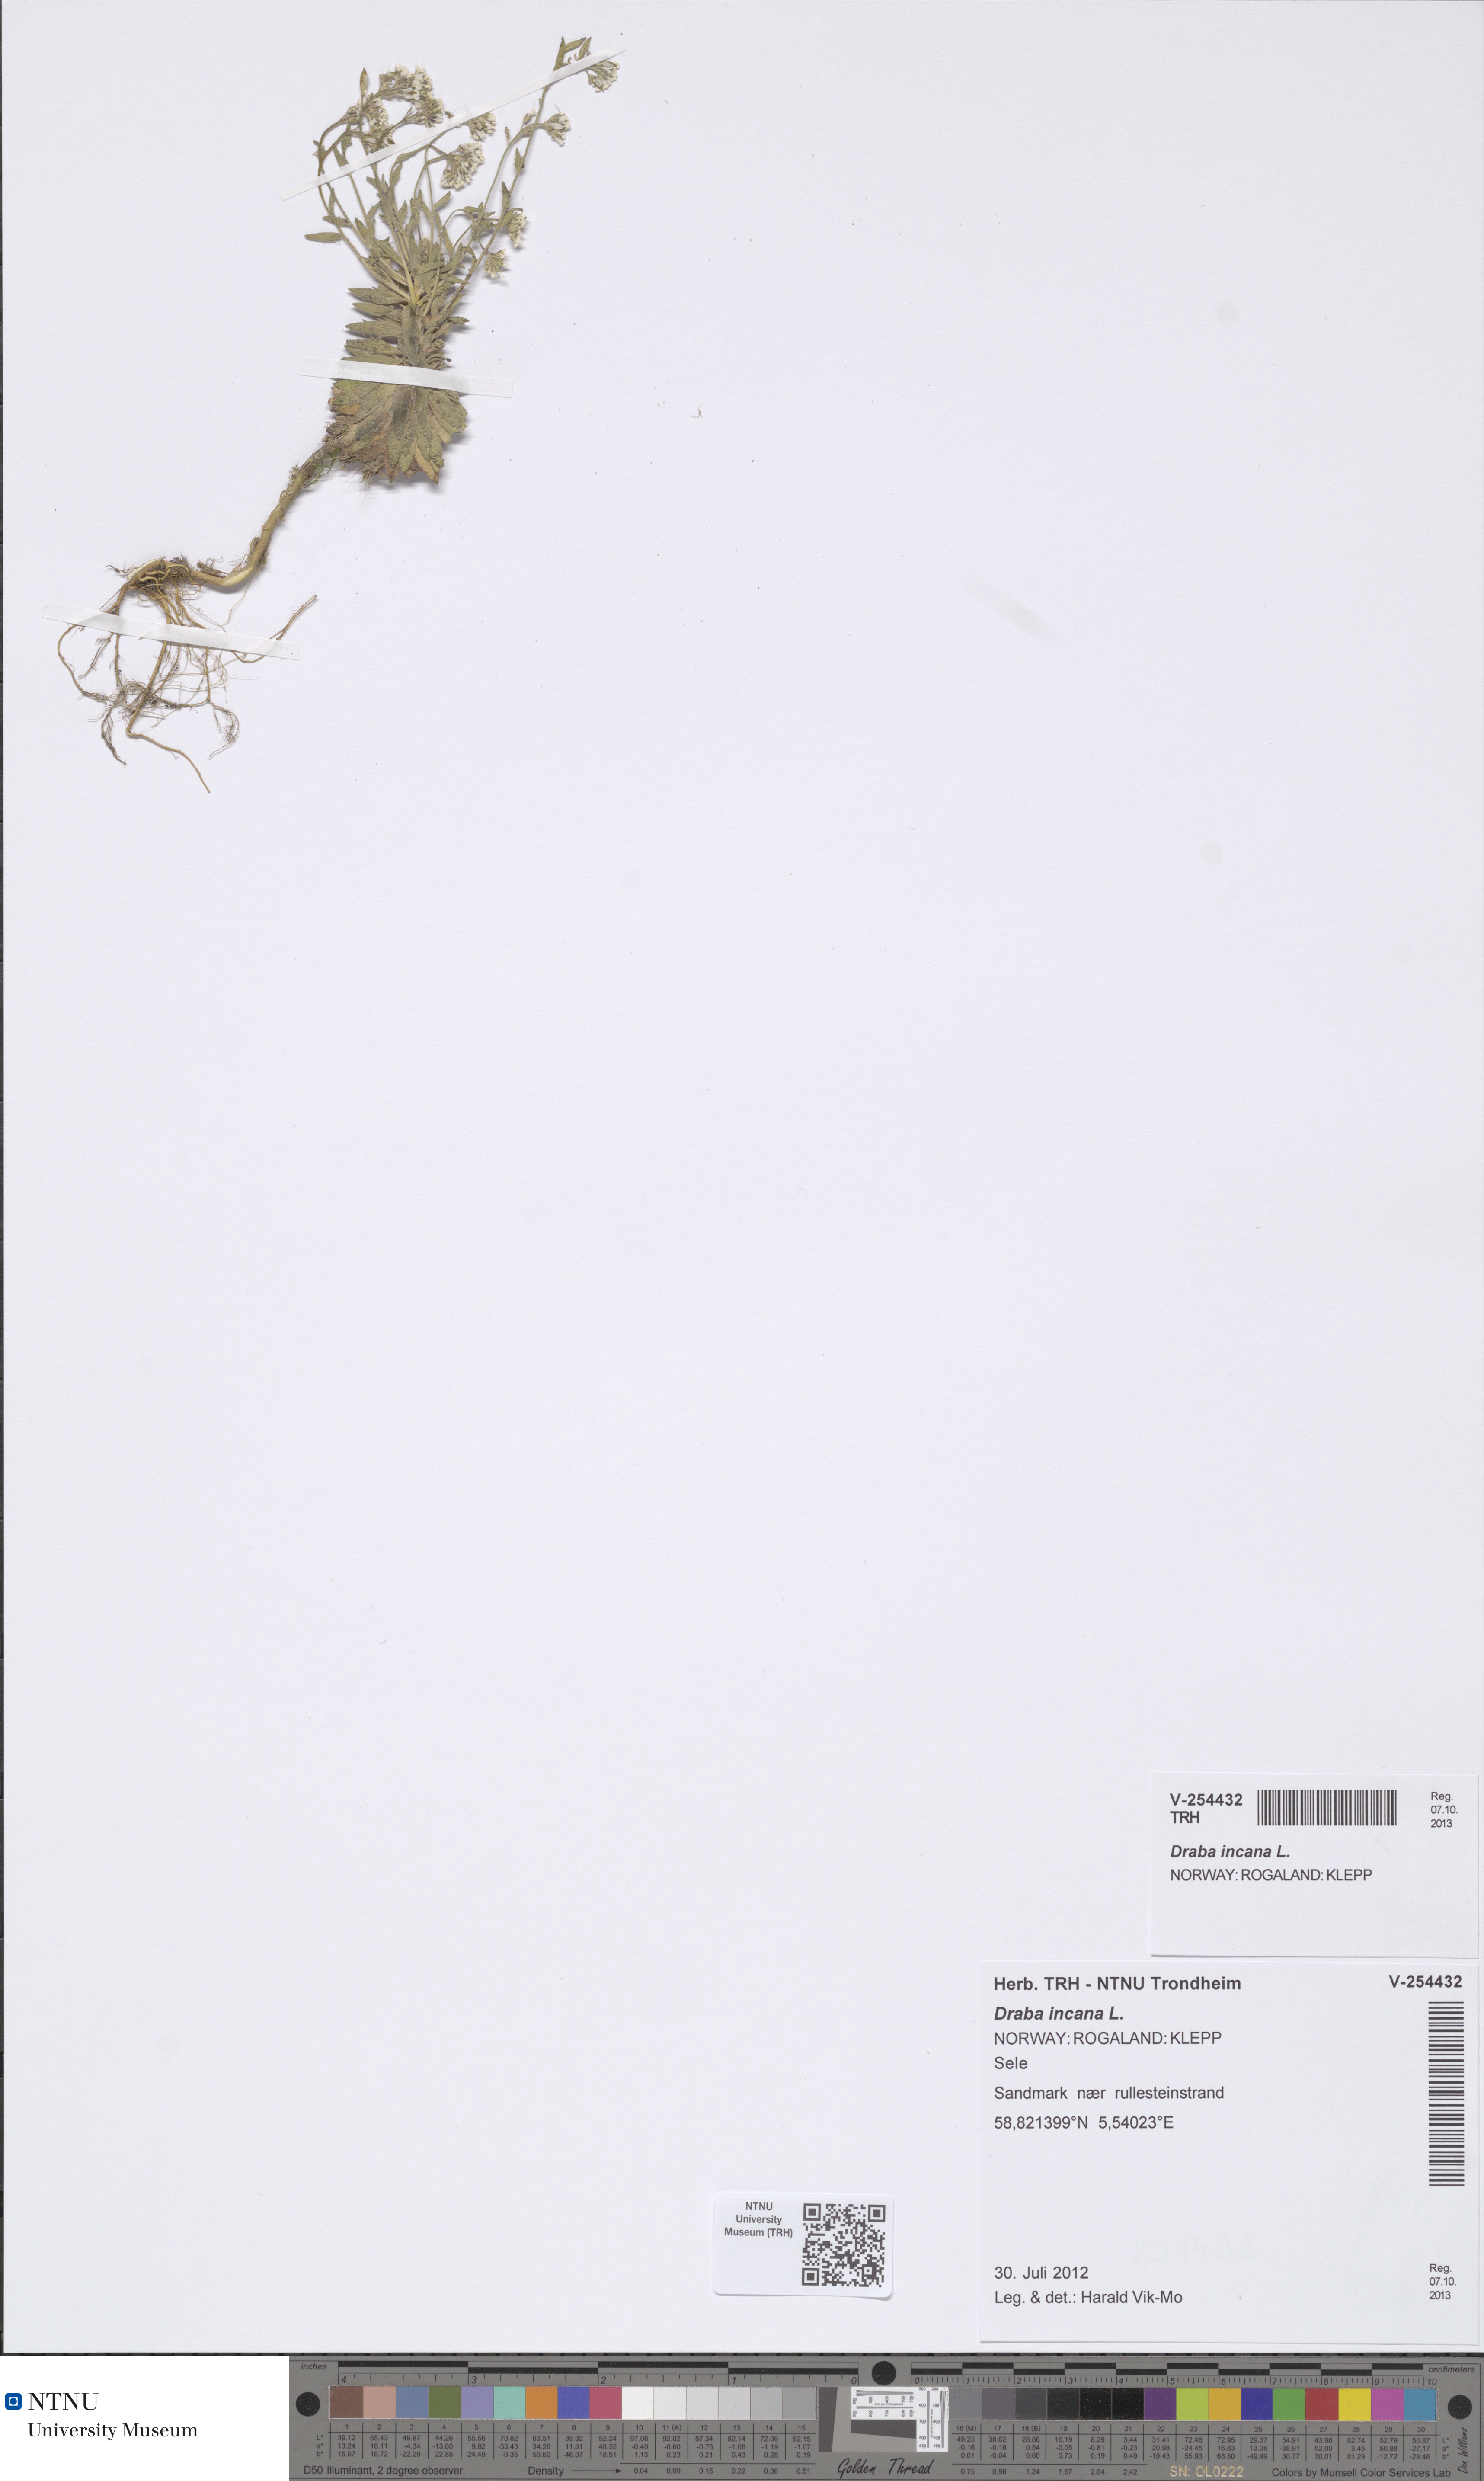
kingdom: Plantae
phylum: Tracheophyta
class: Magnoliopsida
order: Brassicales
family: Brassicaceae
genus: Draba
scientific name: Draba incana
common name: Hoary whitlow-grass
